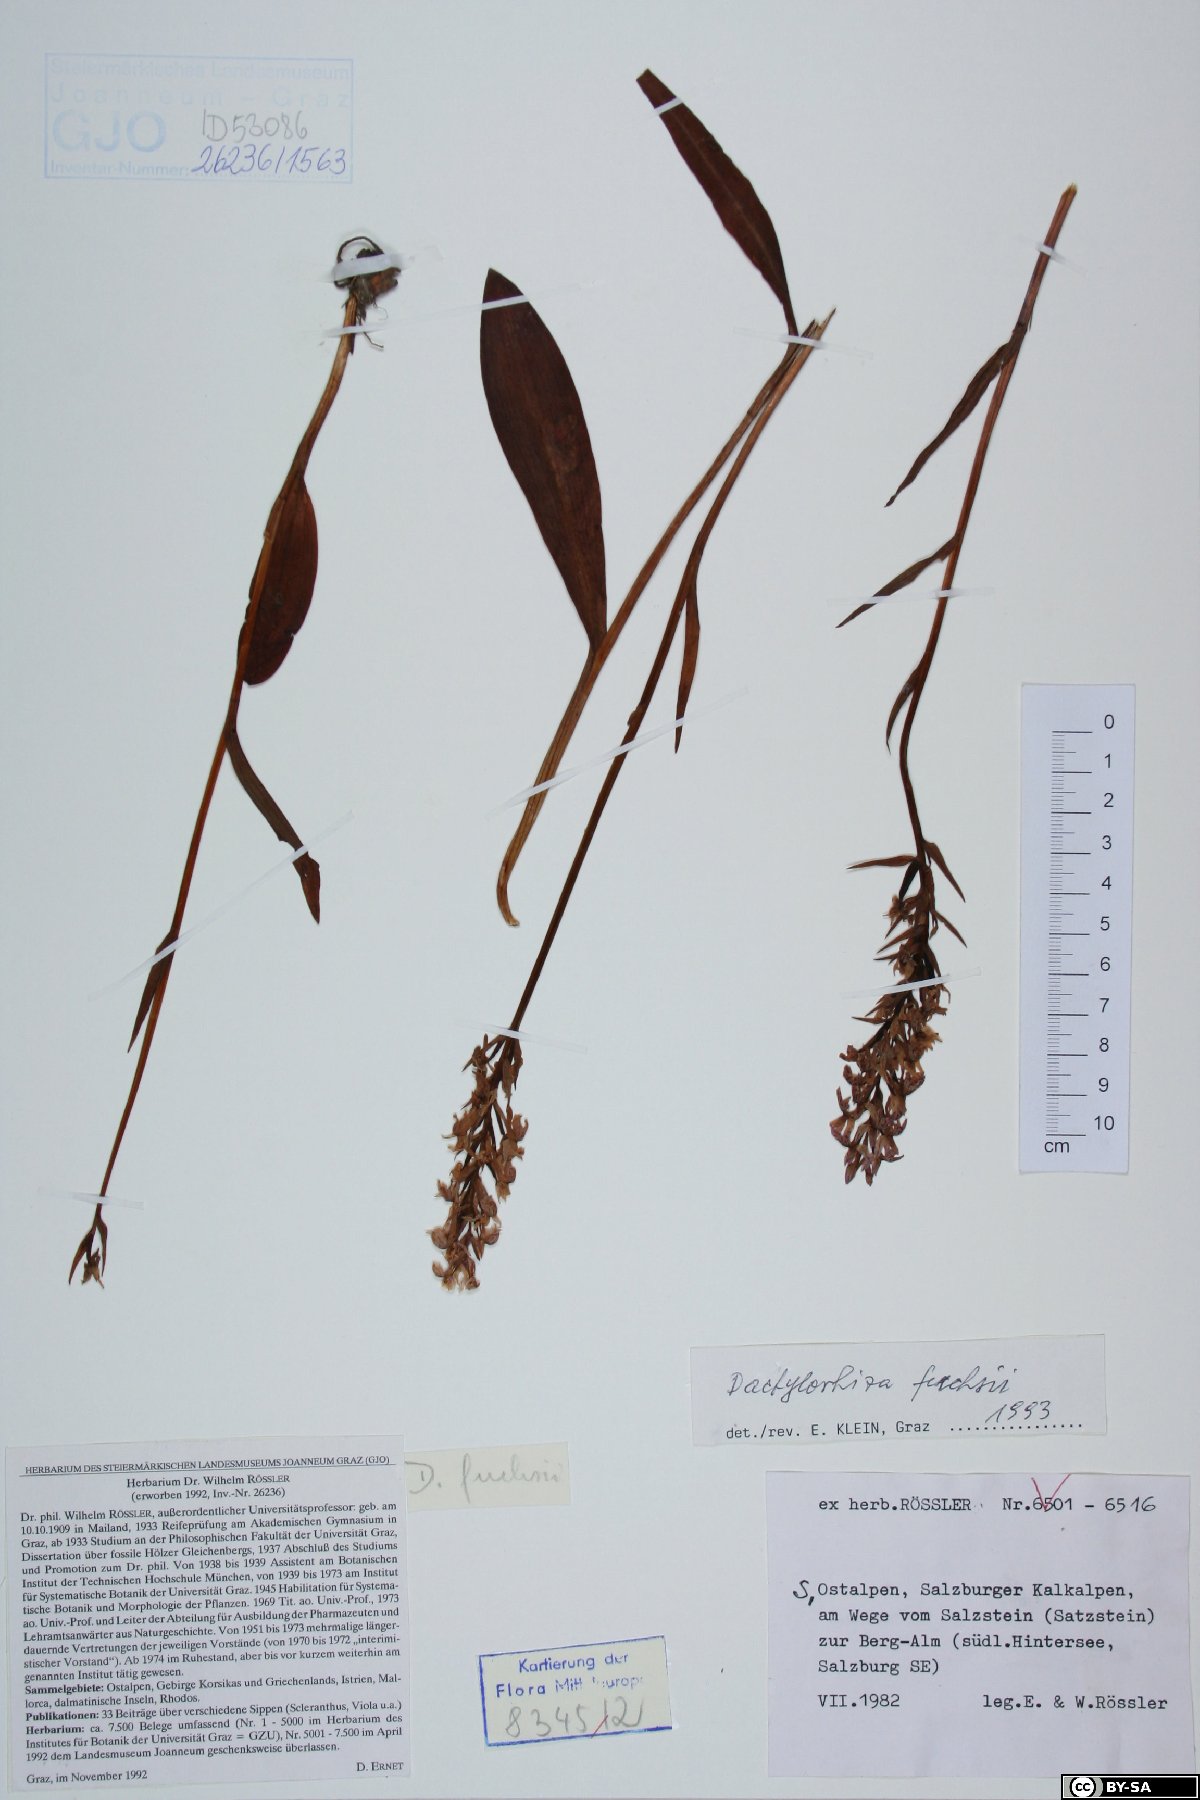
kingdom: Plantae
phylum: Tracheophyta
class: Liliopsida
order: Asparagales
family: Orchidaceae
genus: Dactylorhiza
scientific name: Dactylorhiza maculata
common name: Heath spotted-orchid
